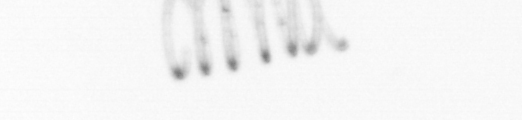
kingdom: Chromista
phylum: Ochrophyta
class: Bacillariophyceae
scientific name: Bacillariophyceae
